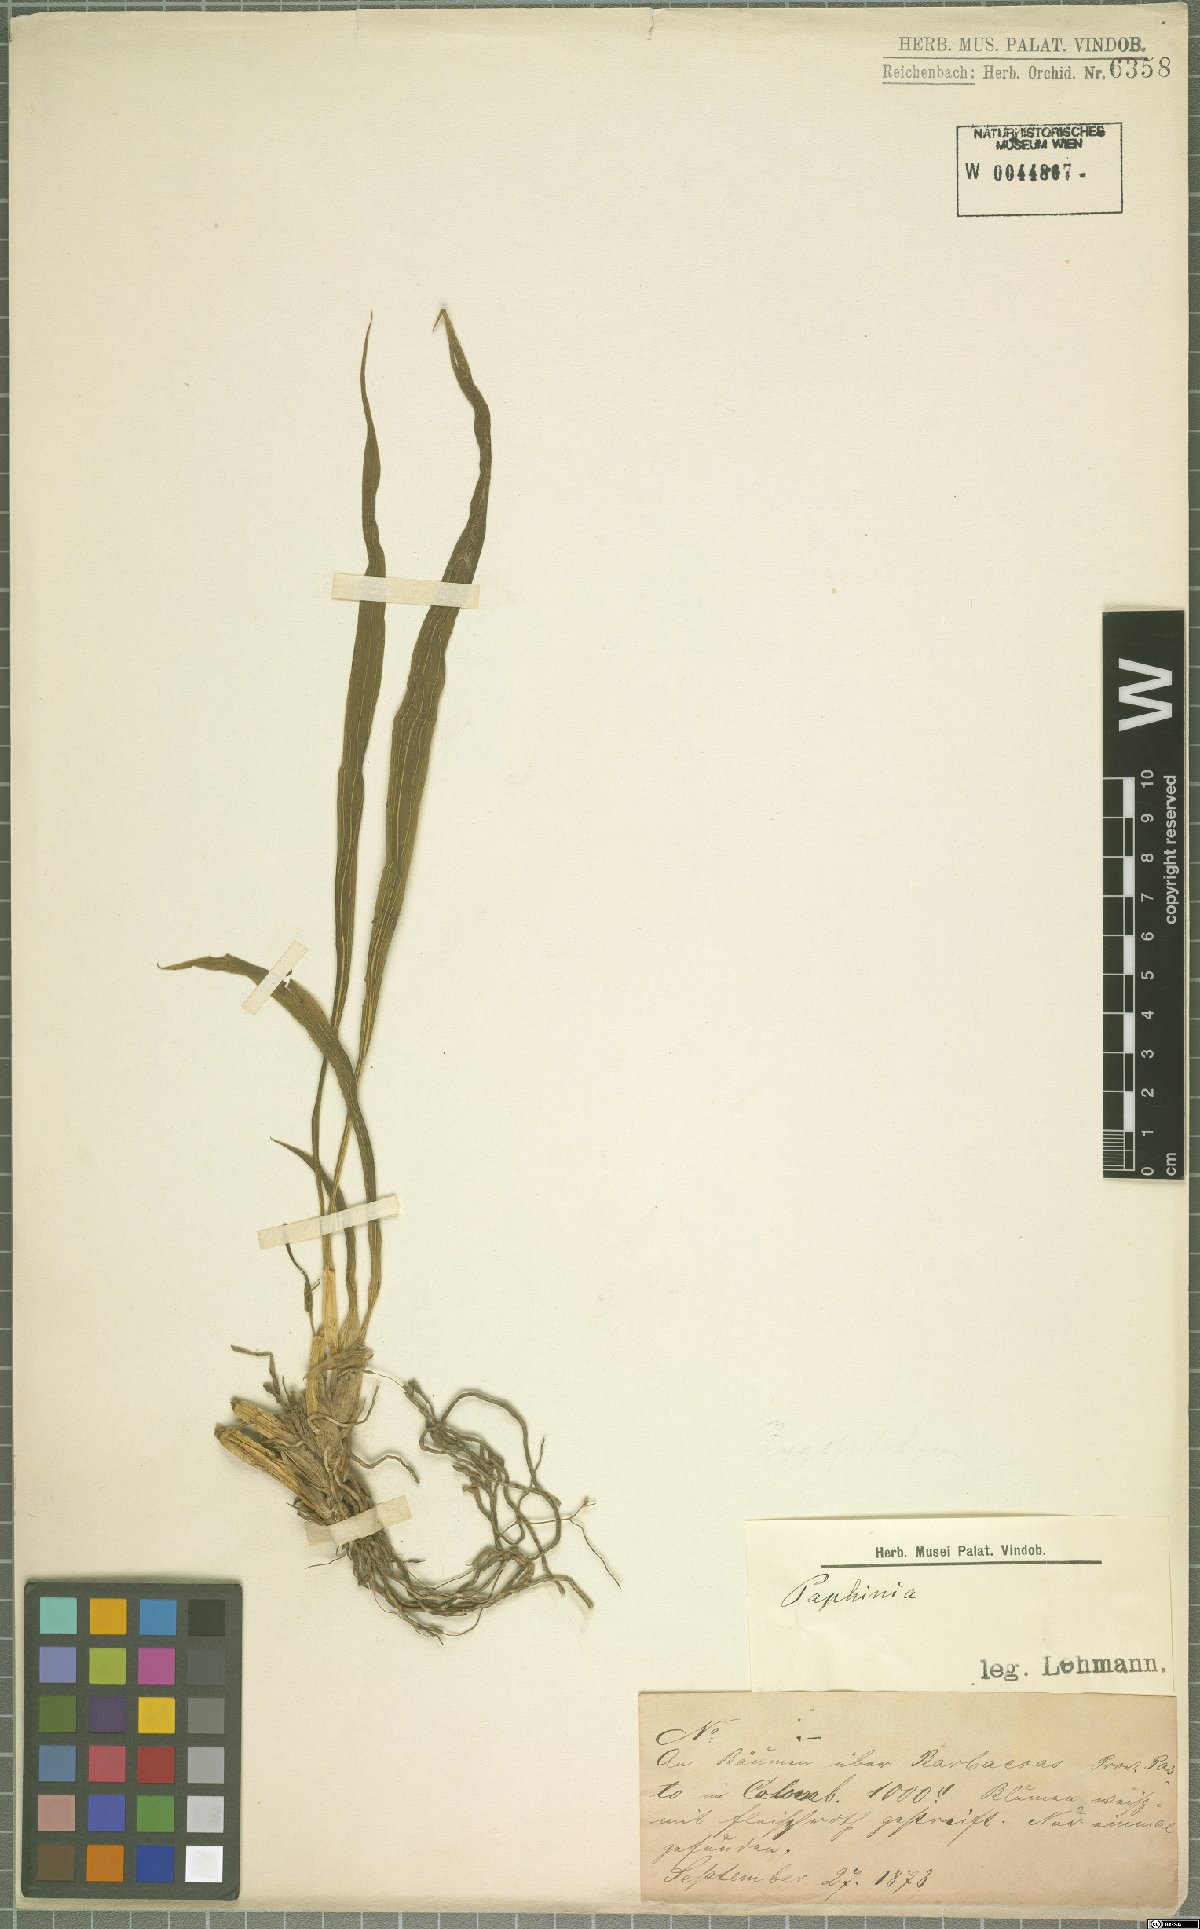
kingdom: Plantae
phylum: Tracheophyta
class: Liliopsida
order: Asparagales
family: Orchidaceae
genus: Paphinia
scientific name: Paphinia
